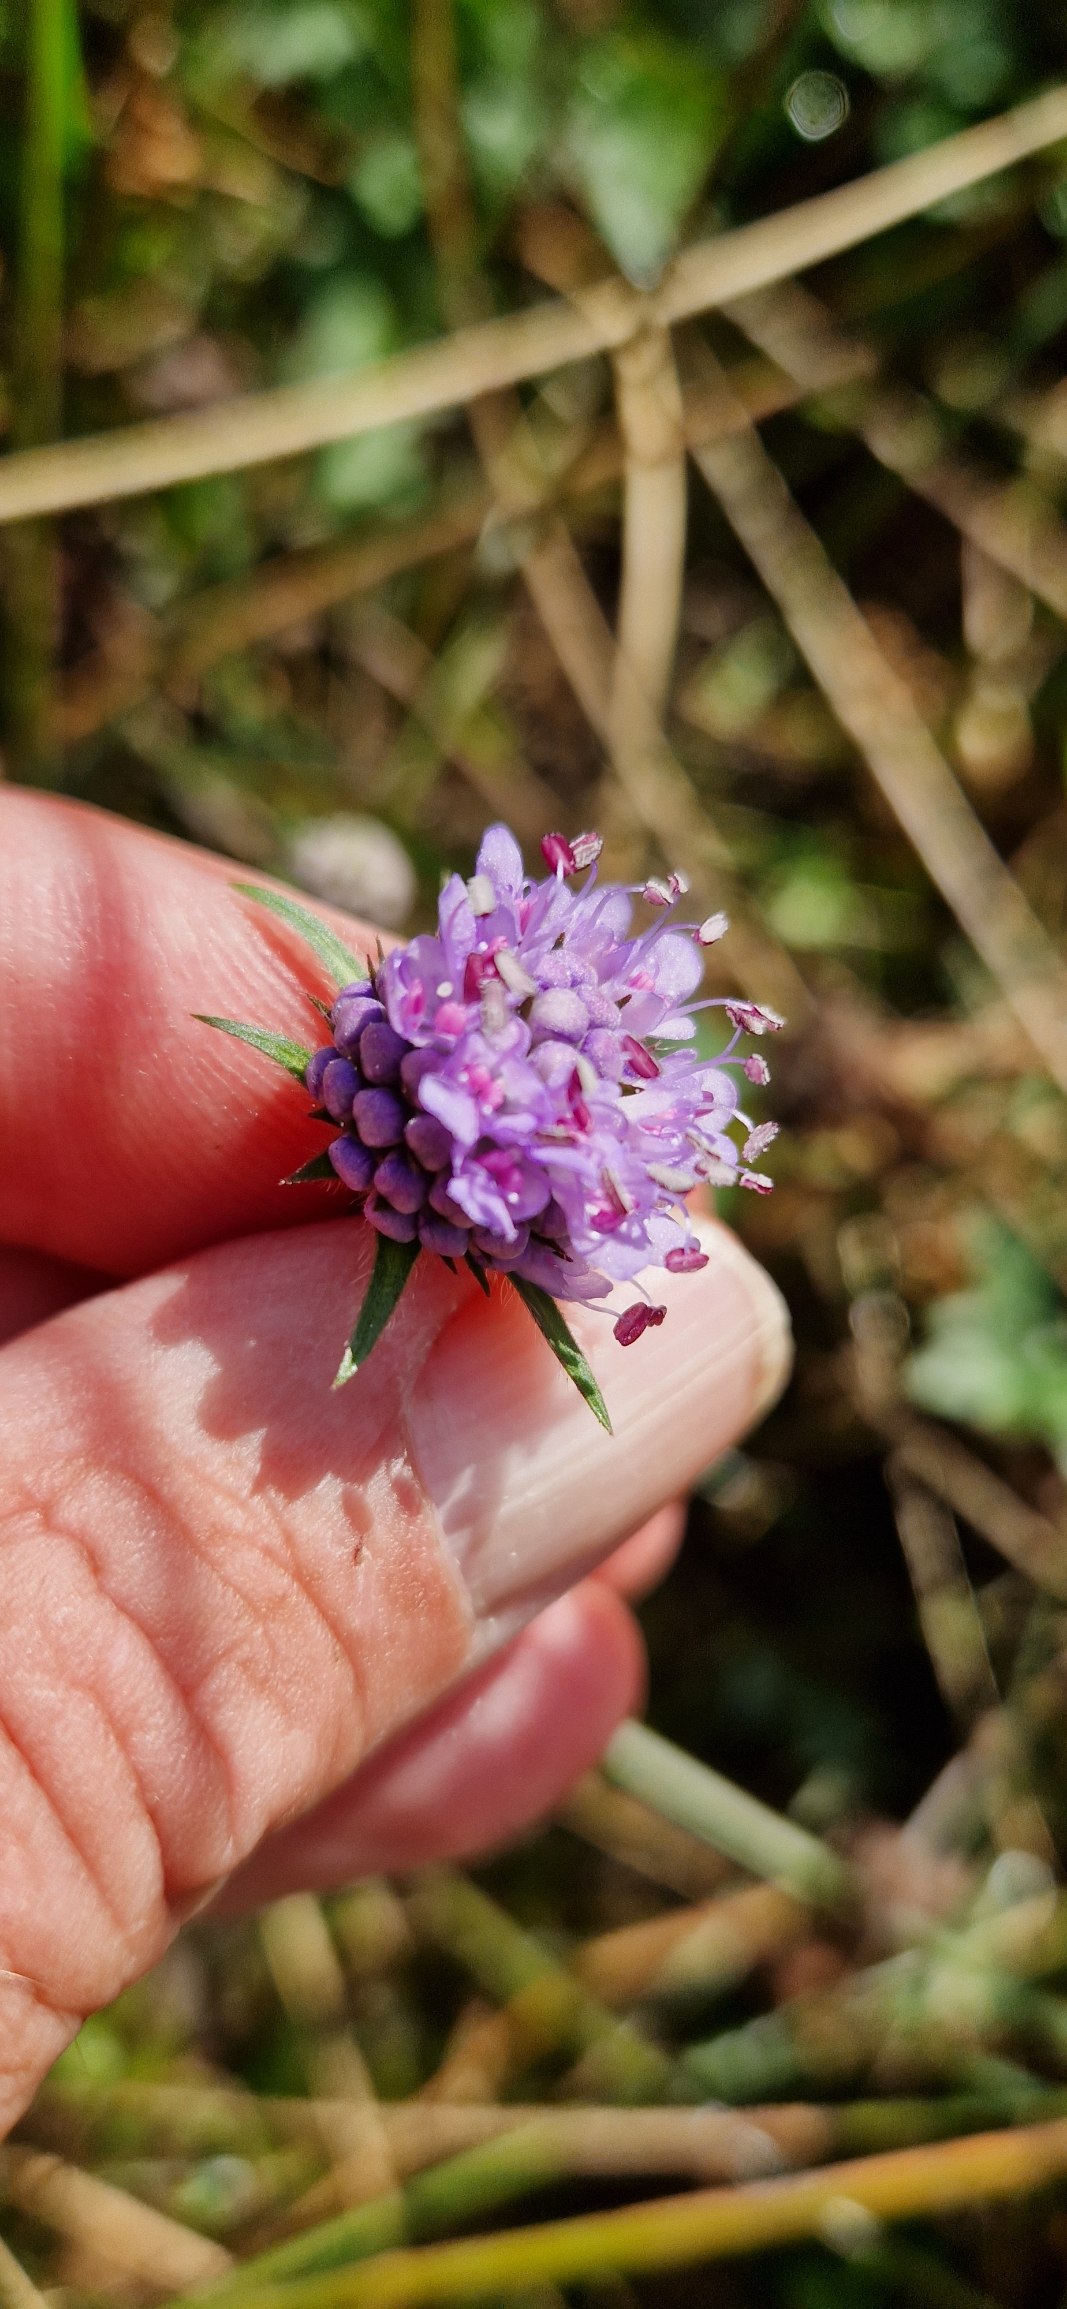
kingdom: Plantae
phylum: Tracheophyta
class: Magnoliopsida
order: Dipsacales
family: Caprifoliaceae
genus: Succisa
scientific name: Succisa pratensis
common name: Djævelsbid
